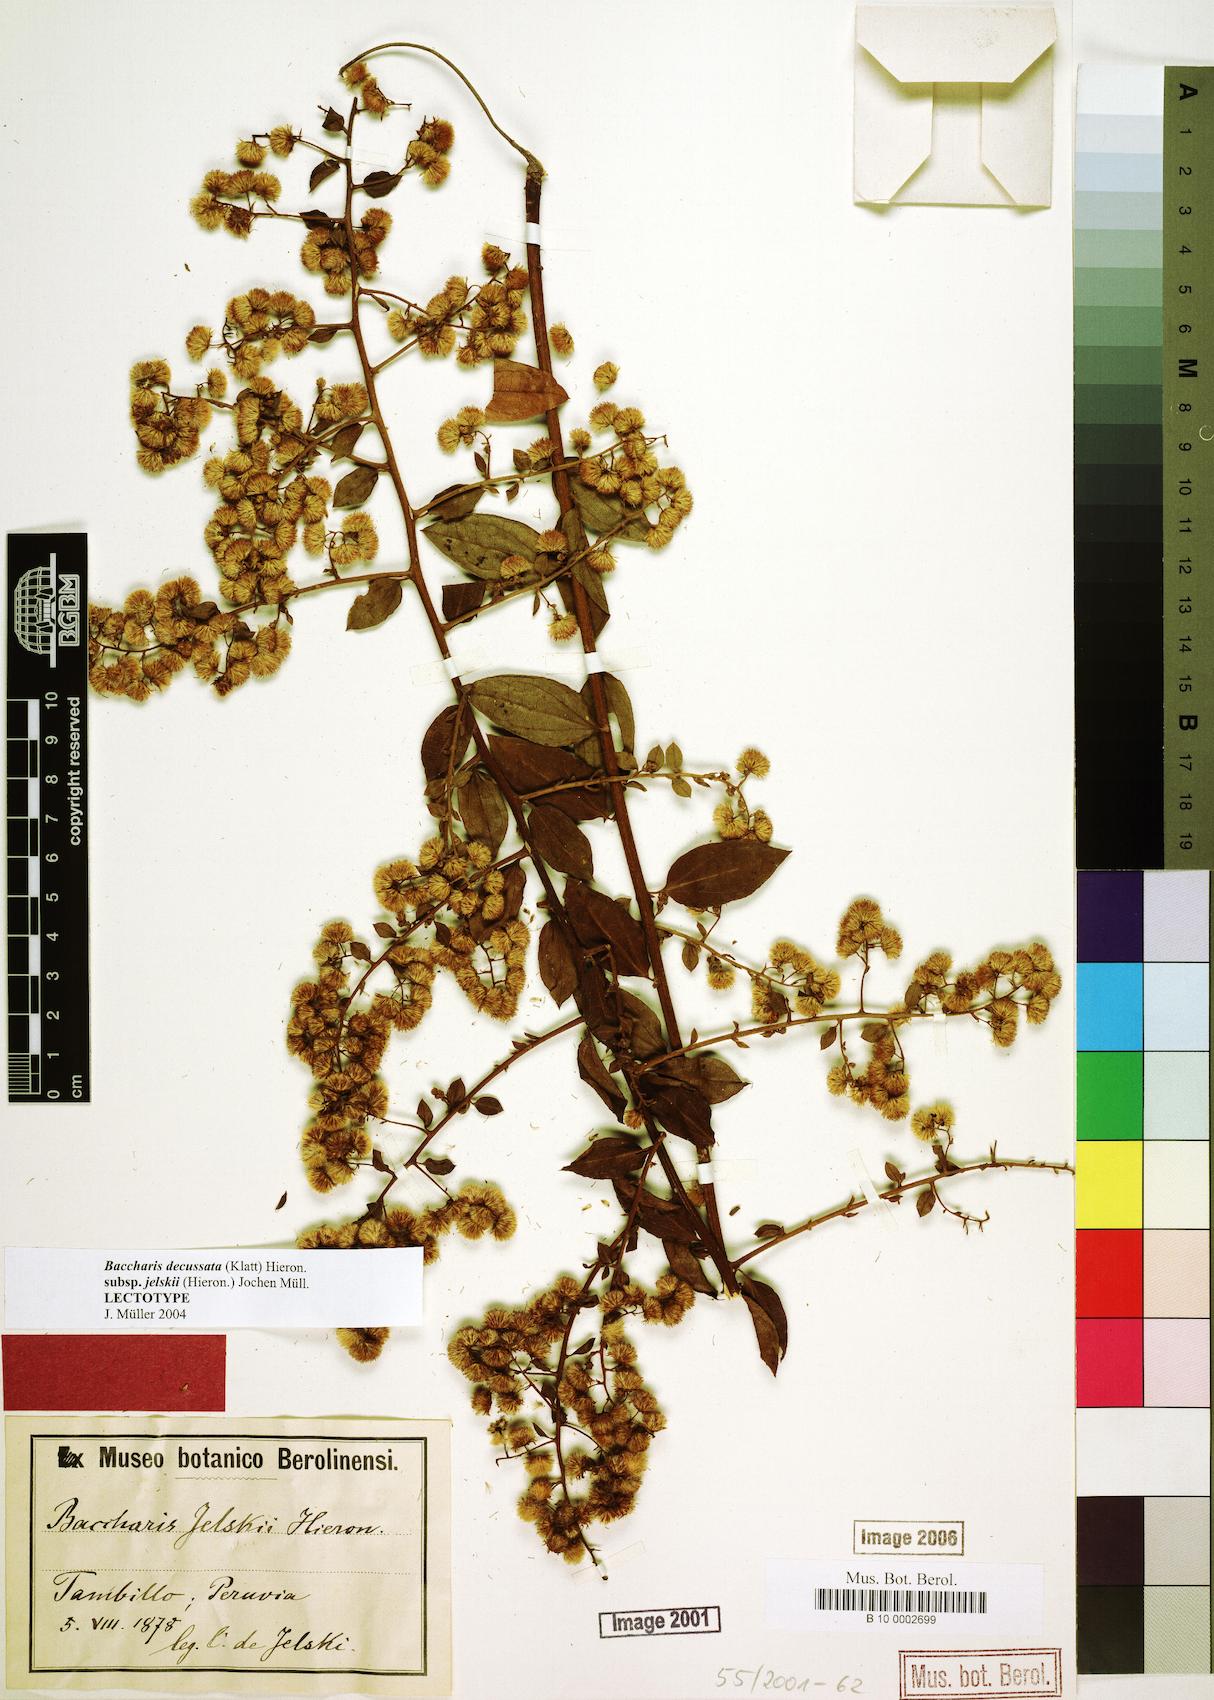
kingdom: Plantae
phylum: Tracheophyta
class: Magnoliopsida
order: Asterales
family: Asteraceae
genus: Baccharis
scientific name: Baccharis jelskii
